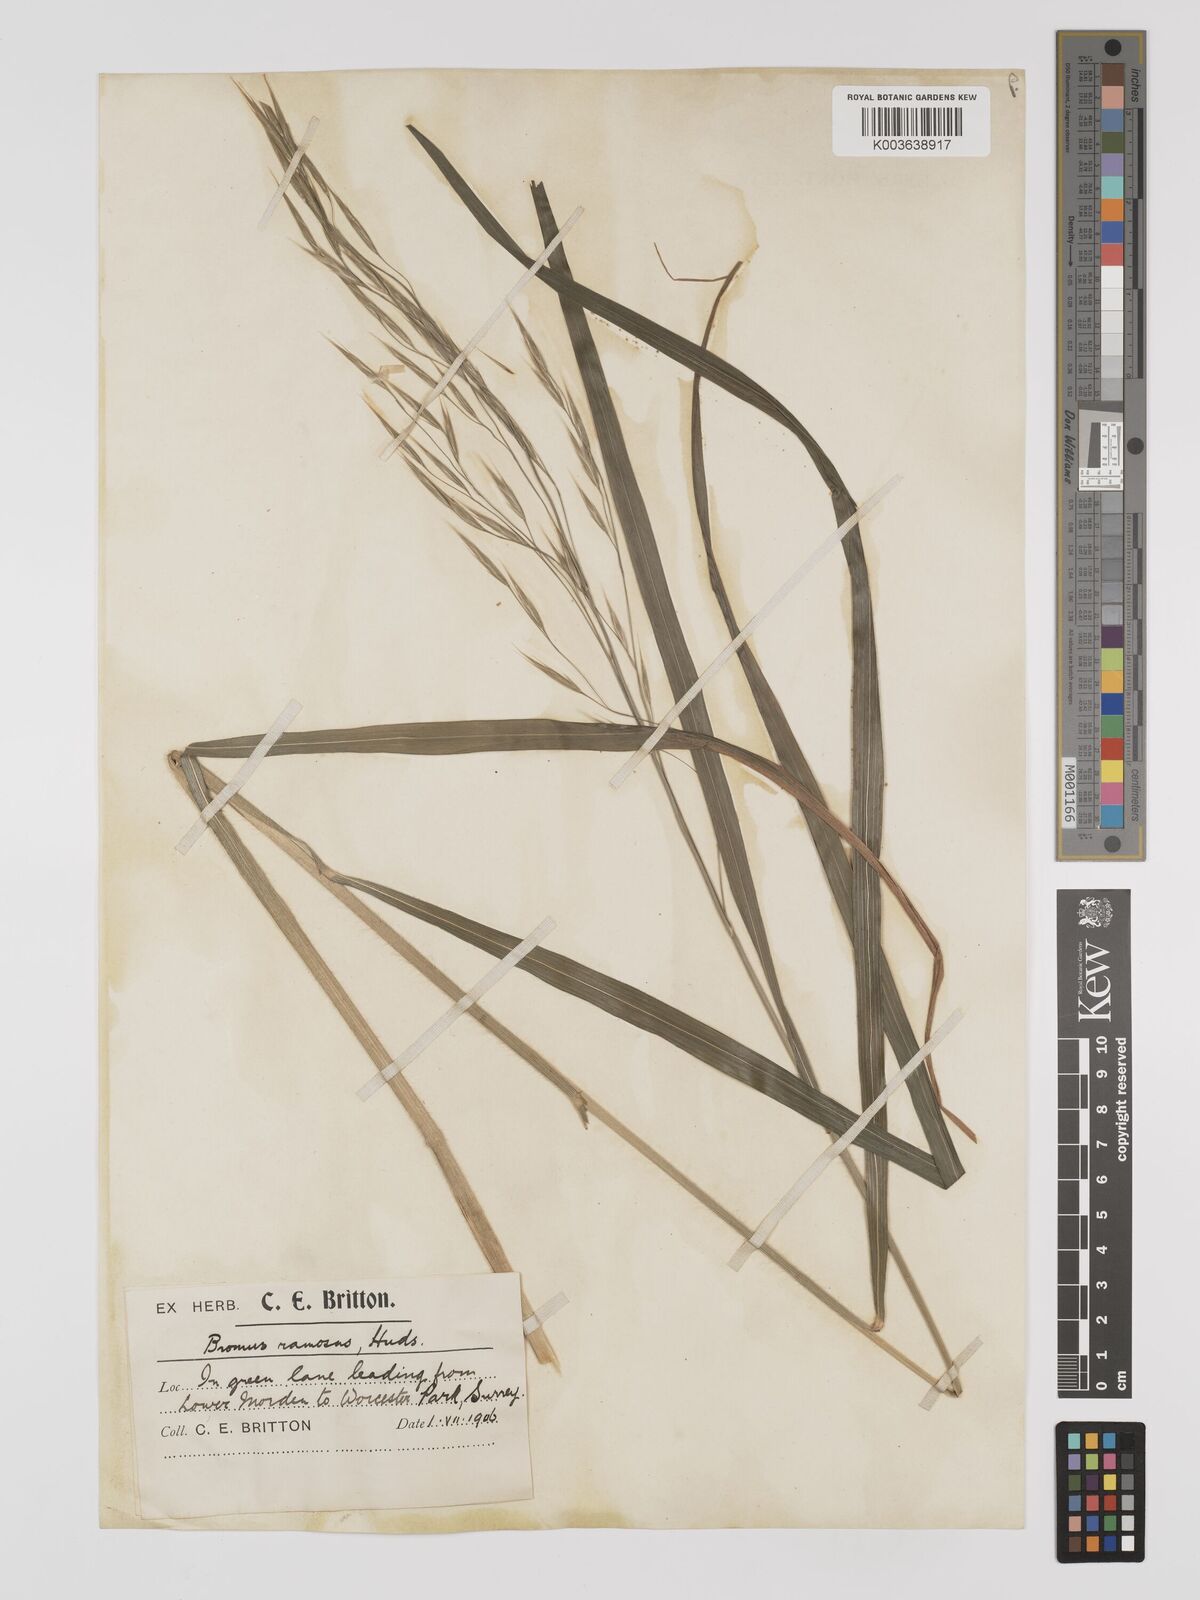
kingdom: Plantae
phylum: Tracheophyta
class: Liliopsida
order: Poales
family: Poaceae
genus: Bromus
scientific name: Bromus ramosus
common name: Hairy brome
